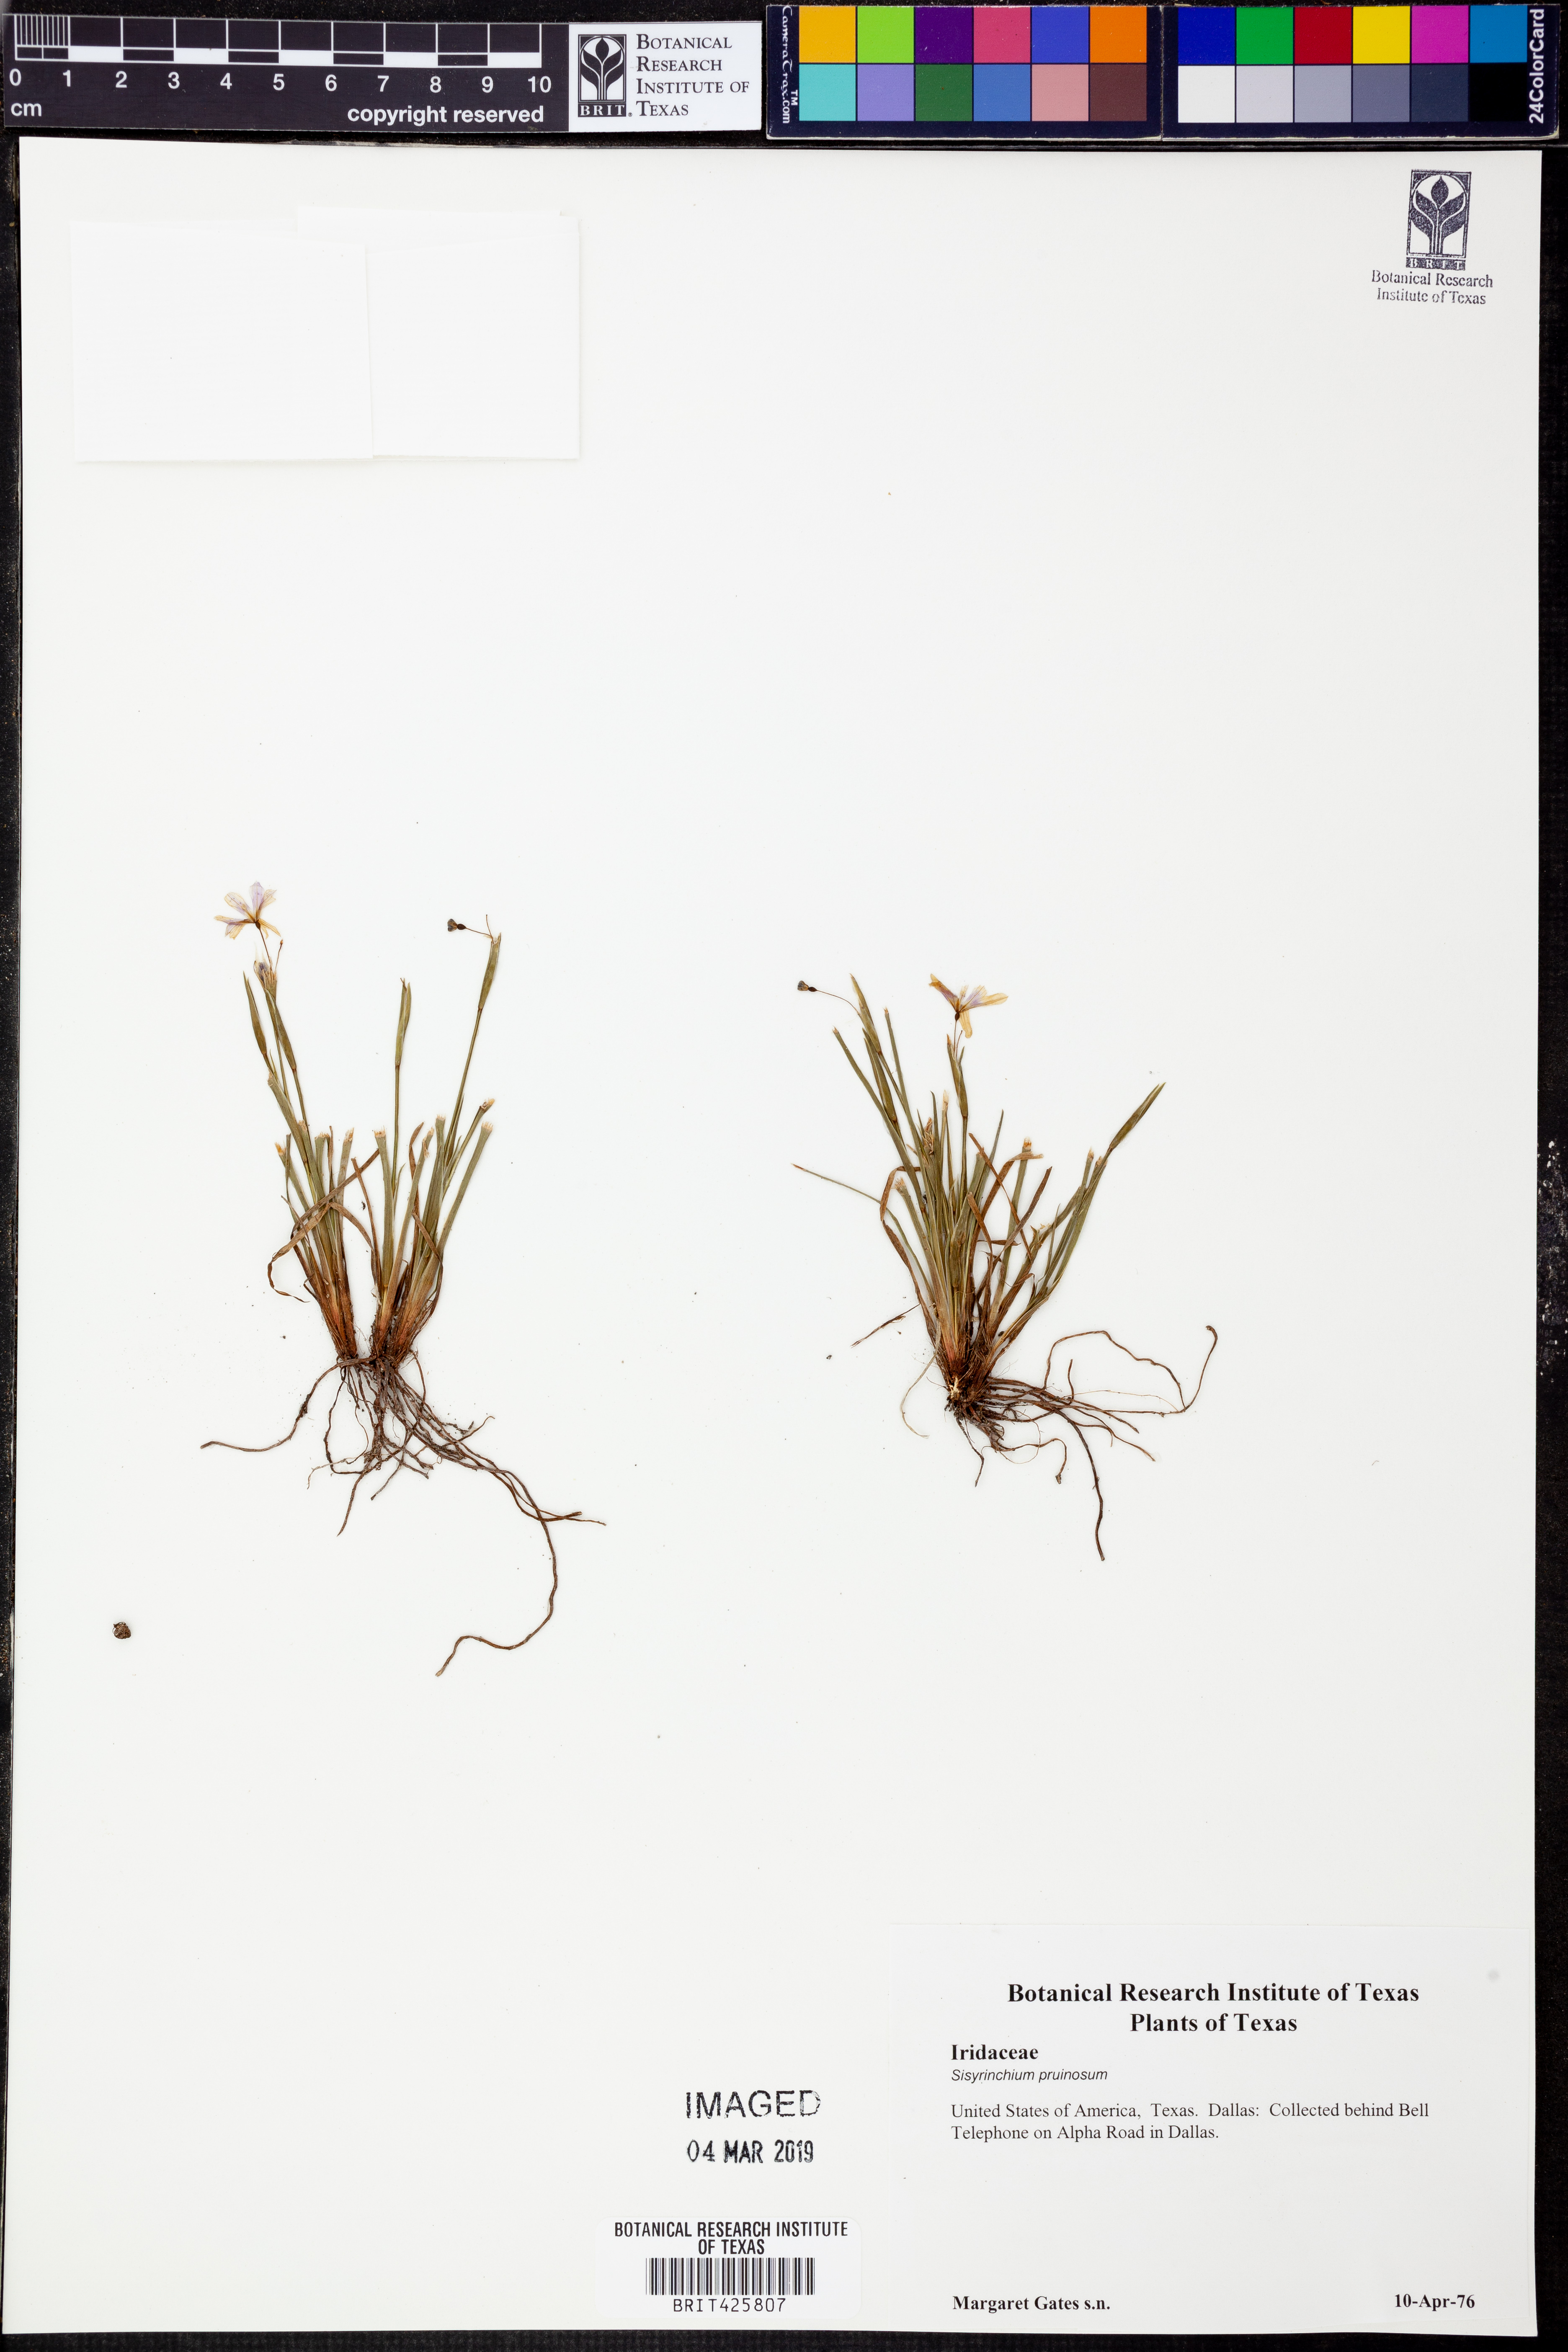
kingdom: Plantae
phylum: Tracheophyta
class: Liliopsida
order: Asparagales
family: Iridaceae
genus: Sisyrinchium
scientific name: Sisyrinchium pruinosum
